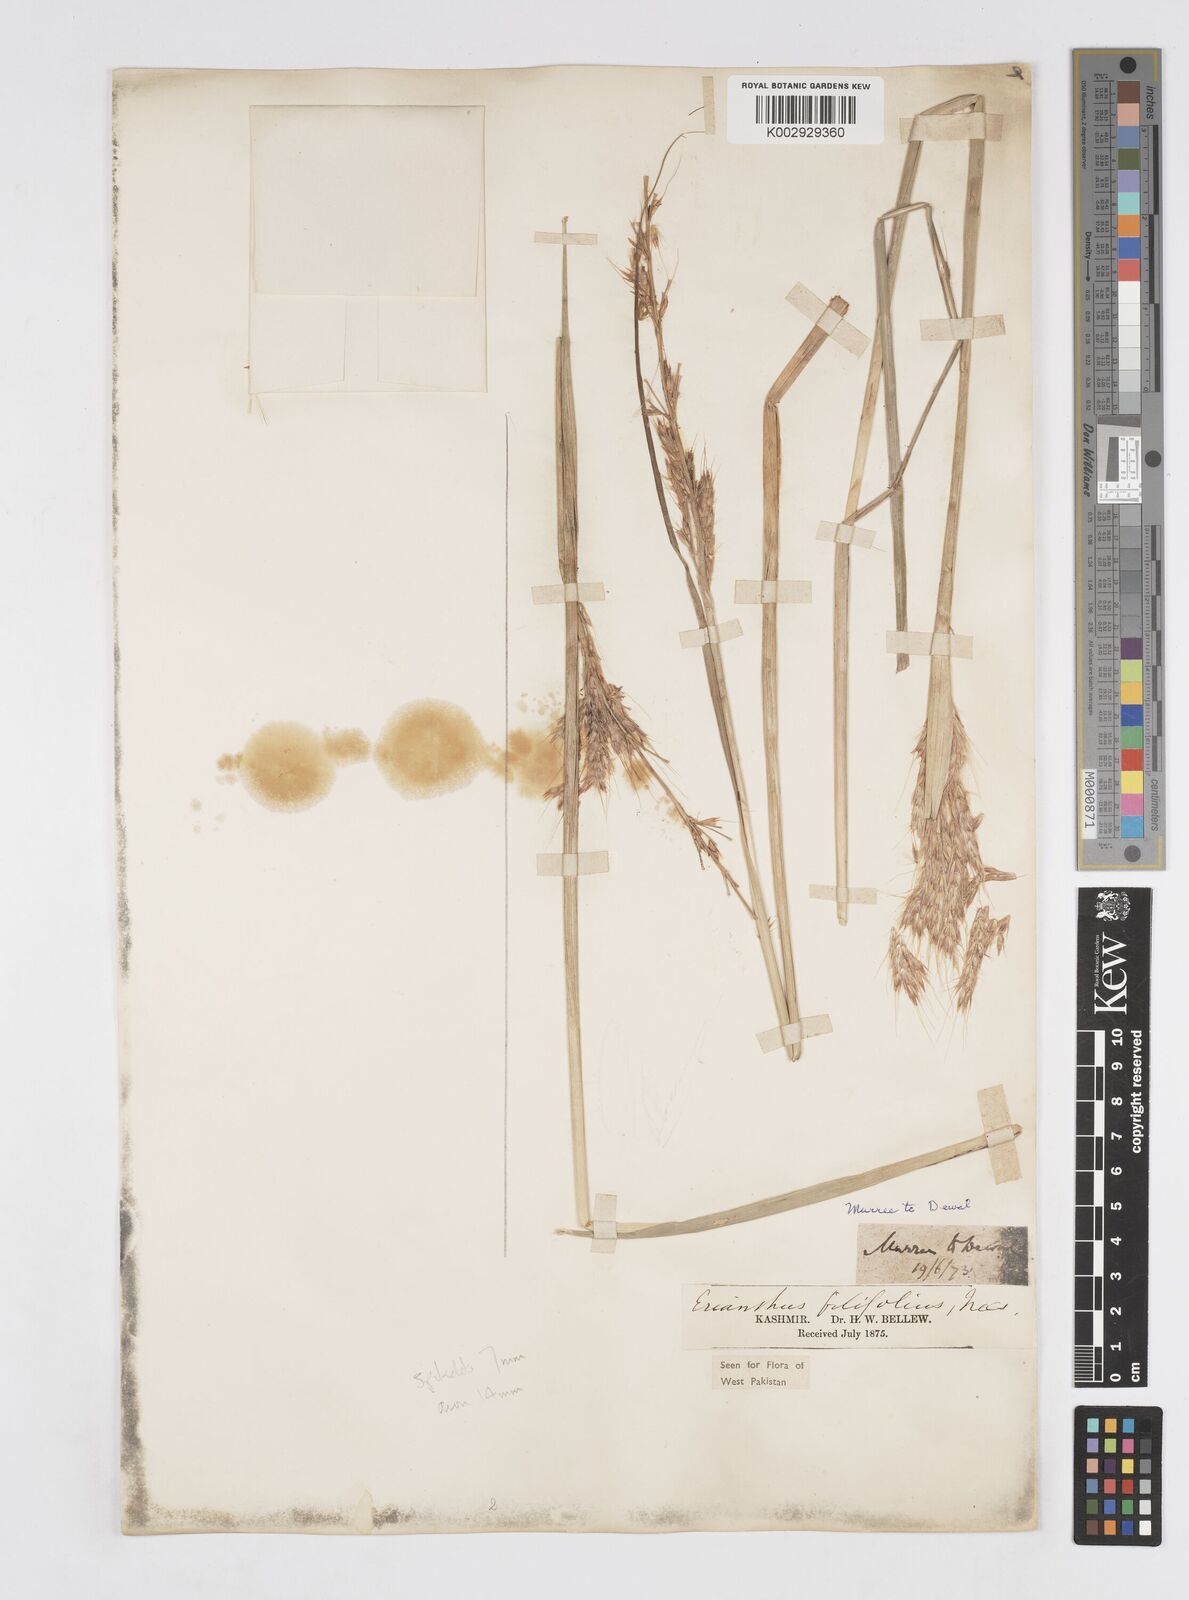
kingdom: Plantae
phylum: Tracheophyta
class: Liliopsida
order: Poales
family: Poaceae
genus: Saccharum
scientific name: Saccharum filifolium
